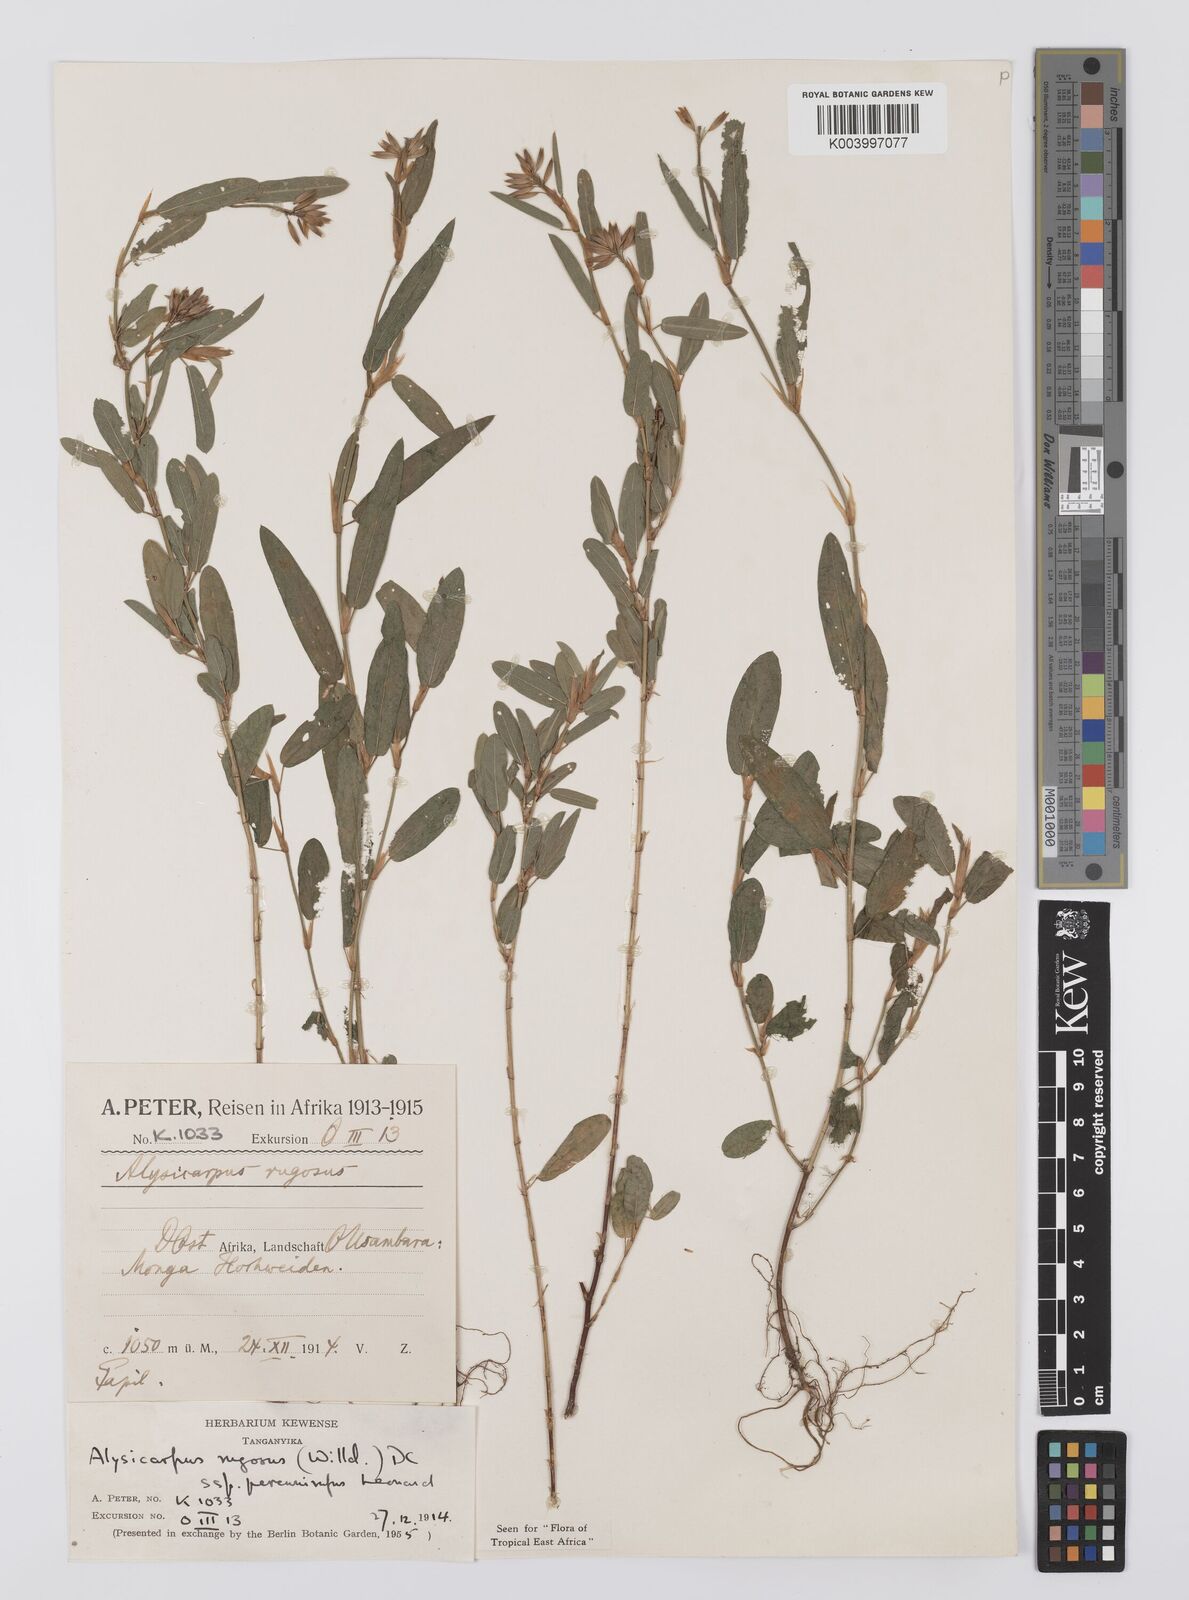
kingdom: Plantae
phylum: Tracheophyta
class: Magnoliopsida
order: Fabales
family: Fabaceae
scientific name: Fabaceae
